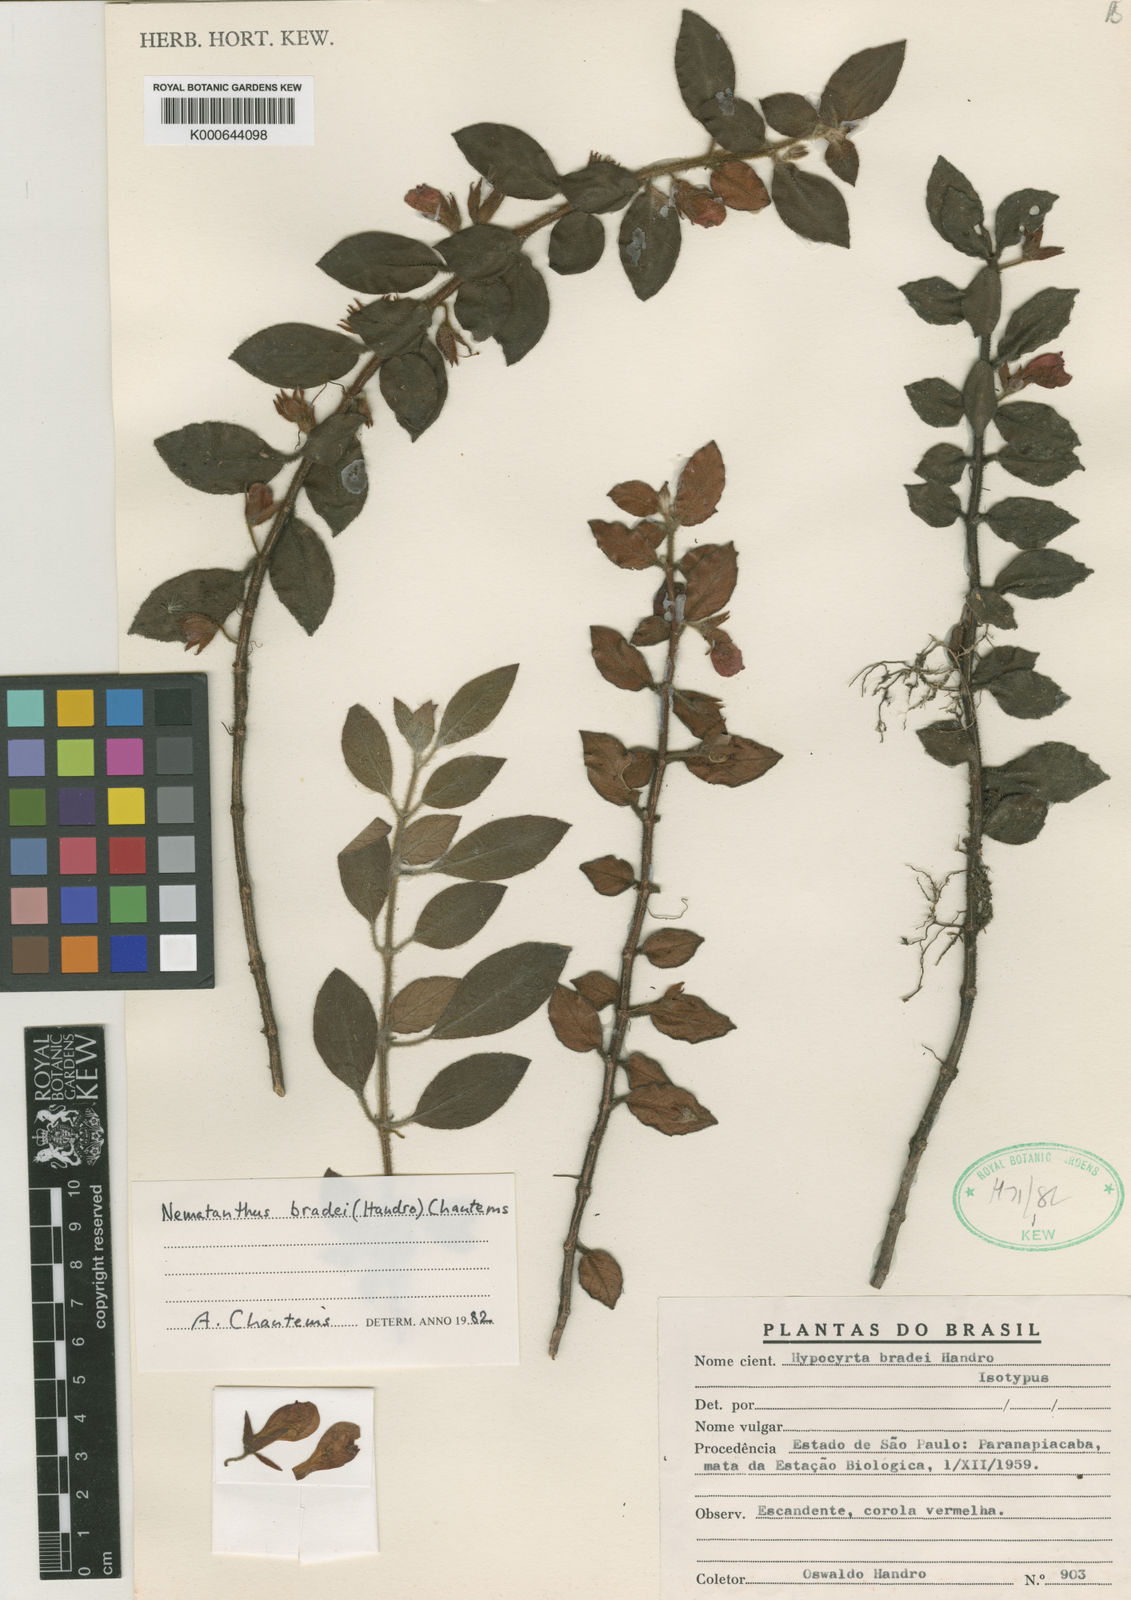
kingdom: Plantae
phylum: Tracheophyta
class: Magnoliopsida
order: Lamiales
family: Gesneriaceae
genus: Nematanthus
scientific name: Nematanthus bradei
